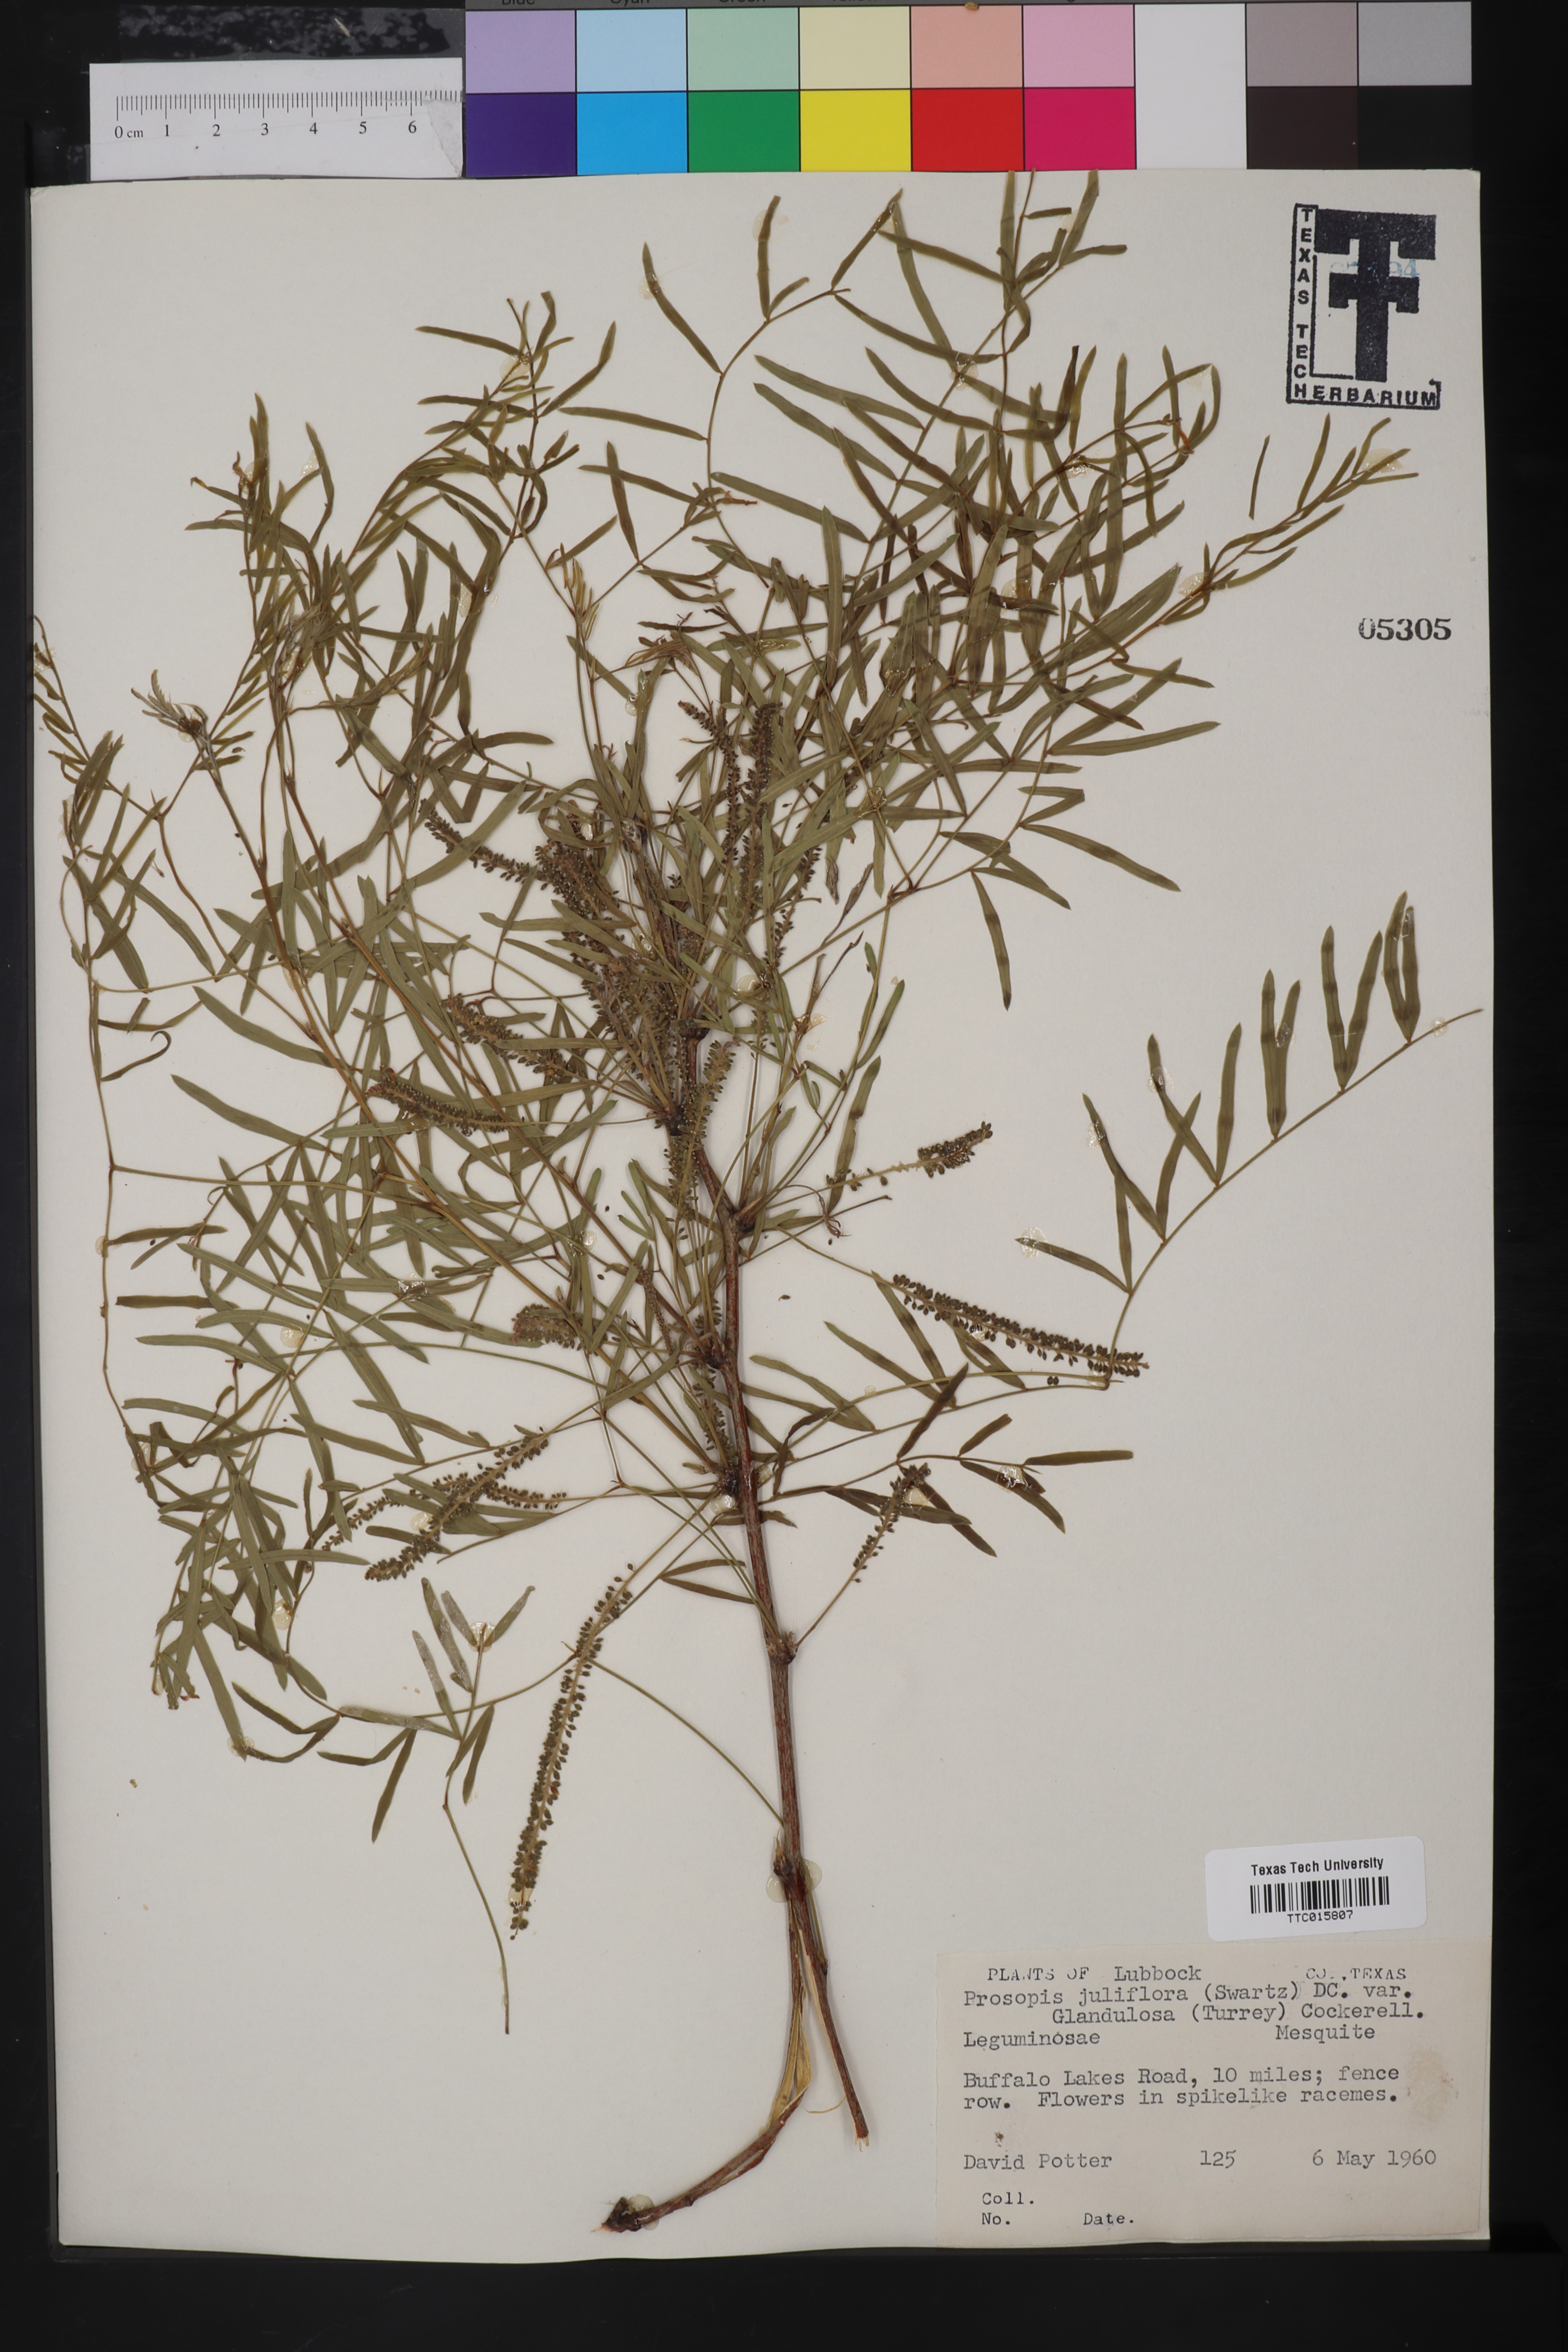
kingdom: Plantae
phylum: Tracheophyta
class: Magnoliopsida
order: Fabales
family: Fabaceae
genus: Prosopis
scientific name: Prosopis glandulosa
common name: Honey mesquite
